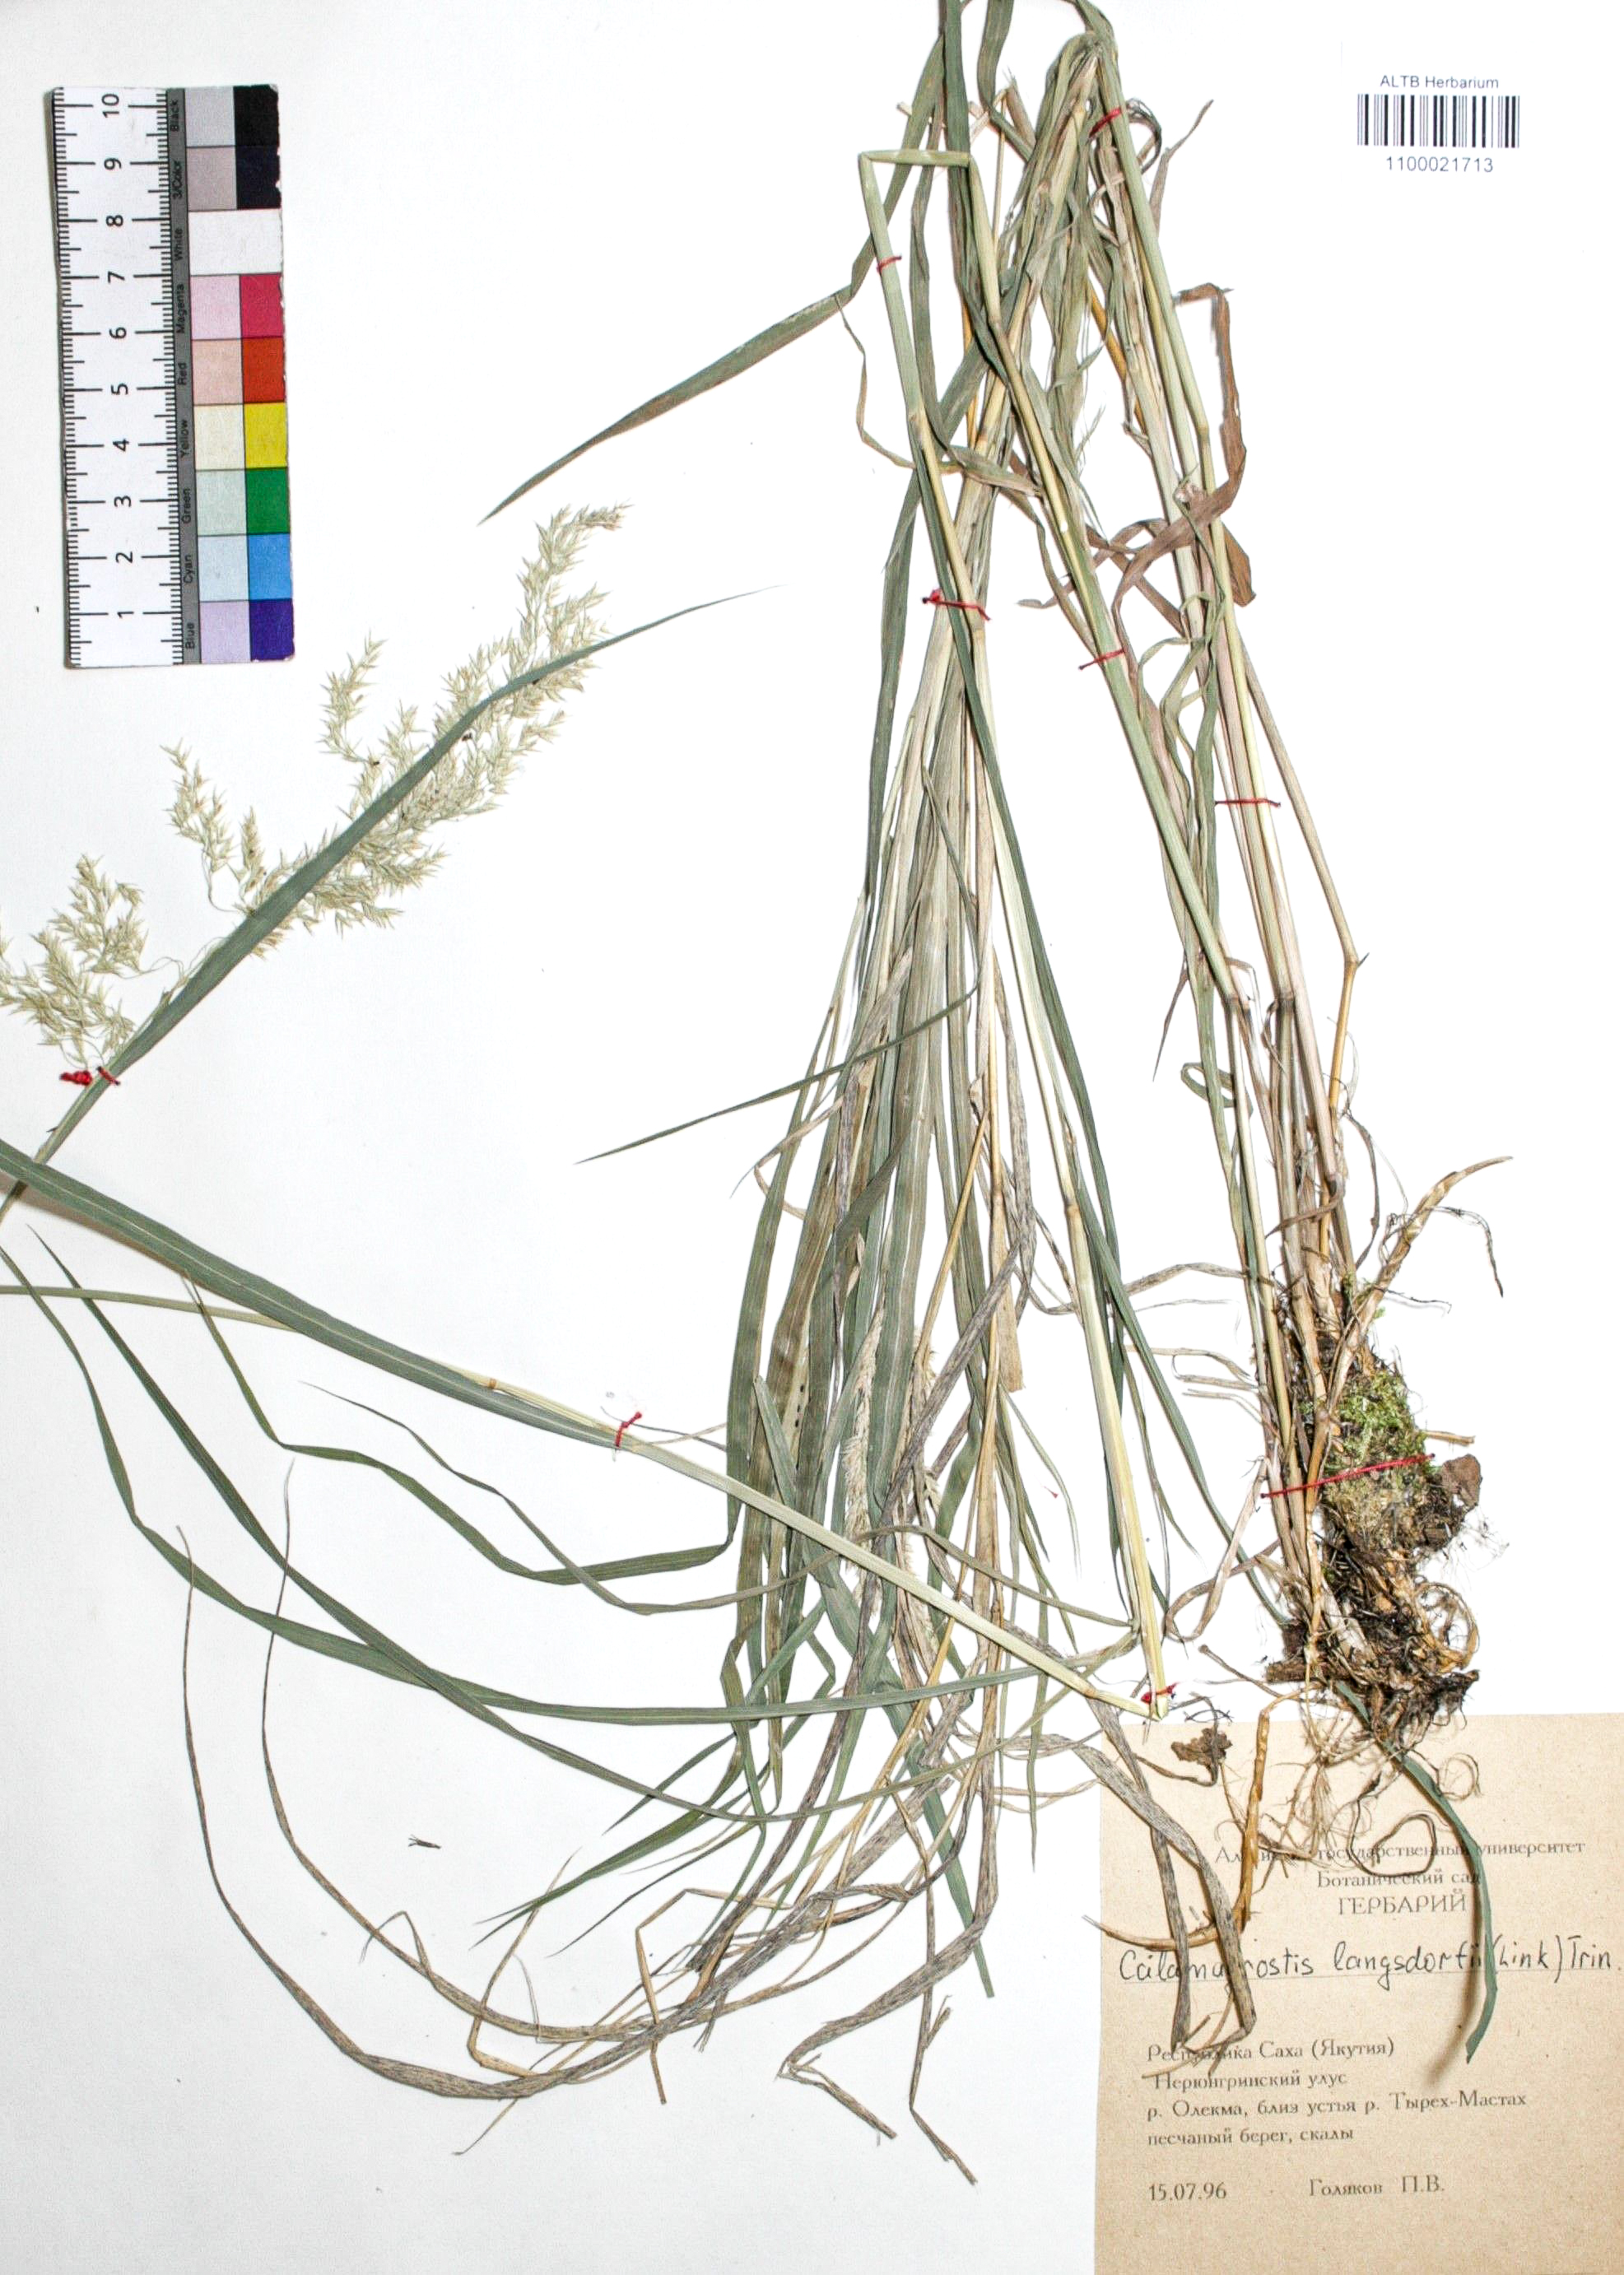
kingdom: Plantae
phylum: Tracheophyta
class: Liliopsida
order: Poales
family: Poaceae
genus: Calamagrostis
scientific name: Calamagrostis purpurea
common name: Scandinavian small-reed
